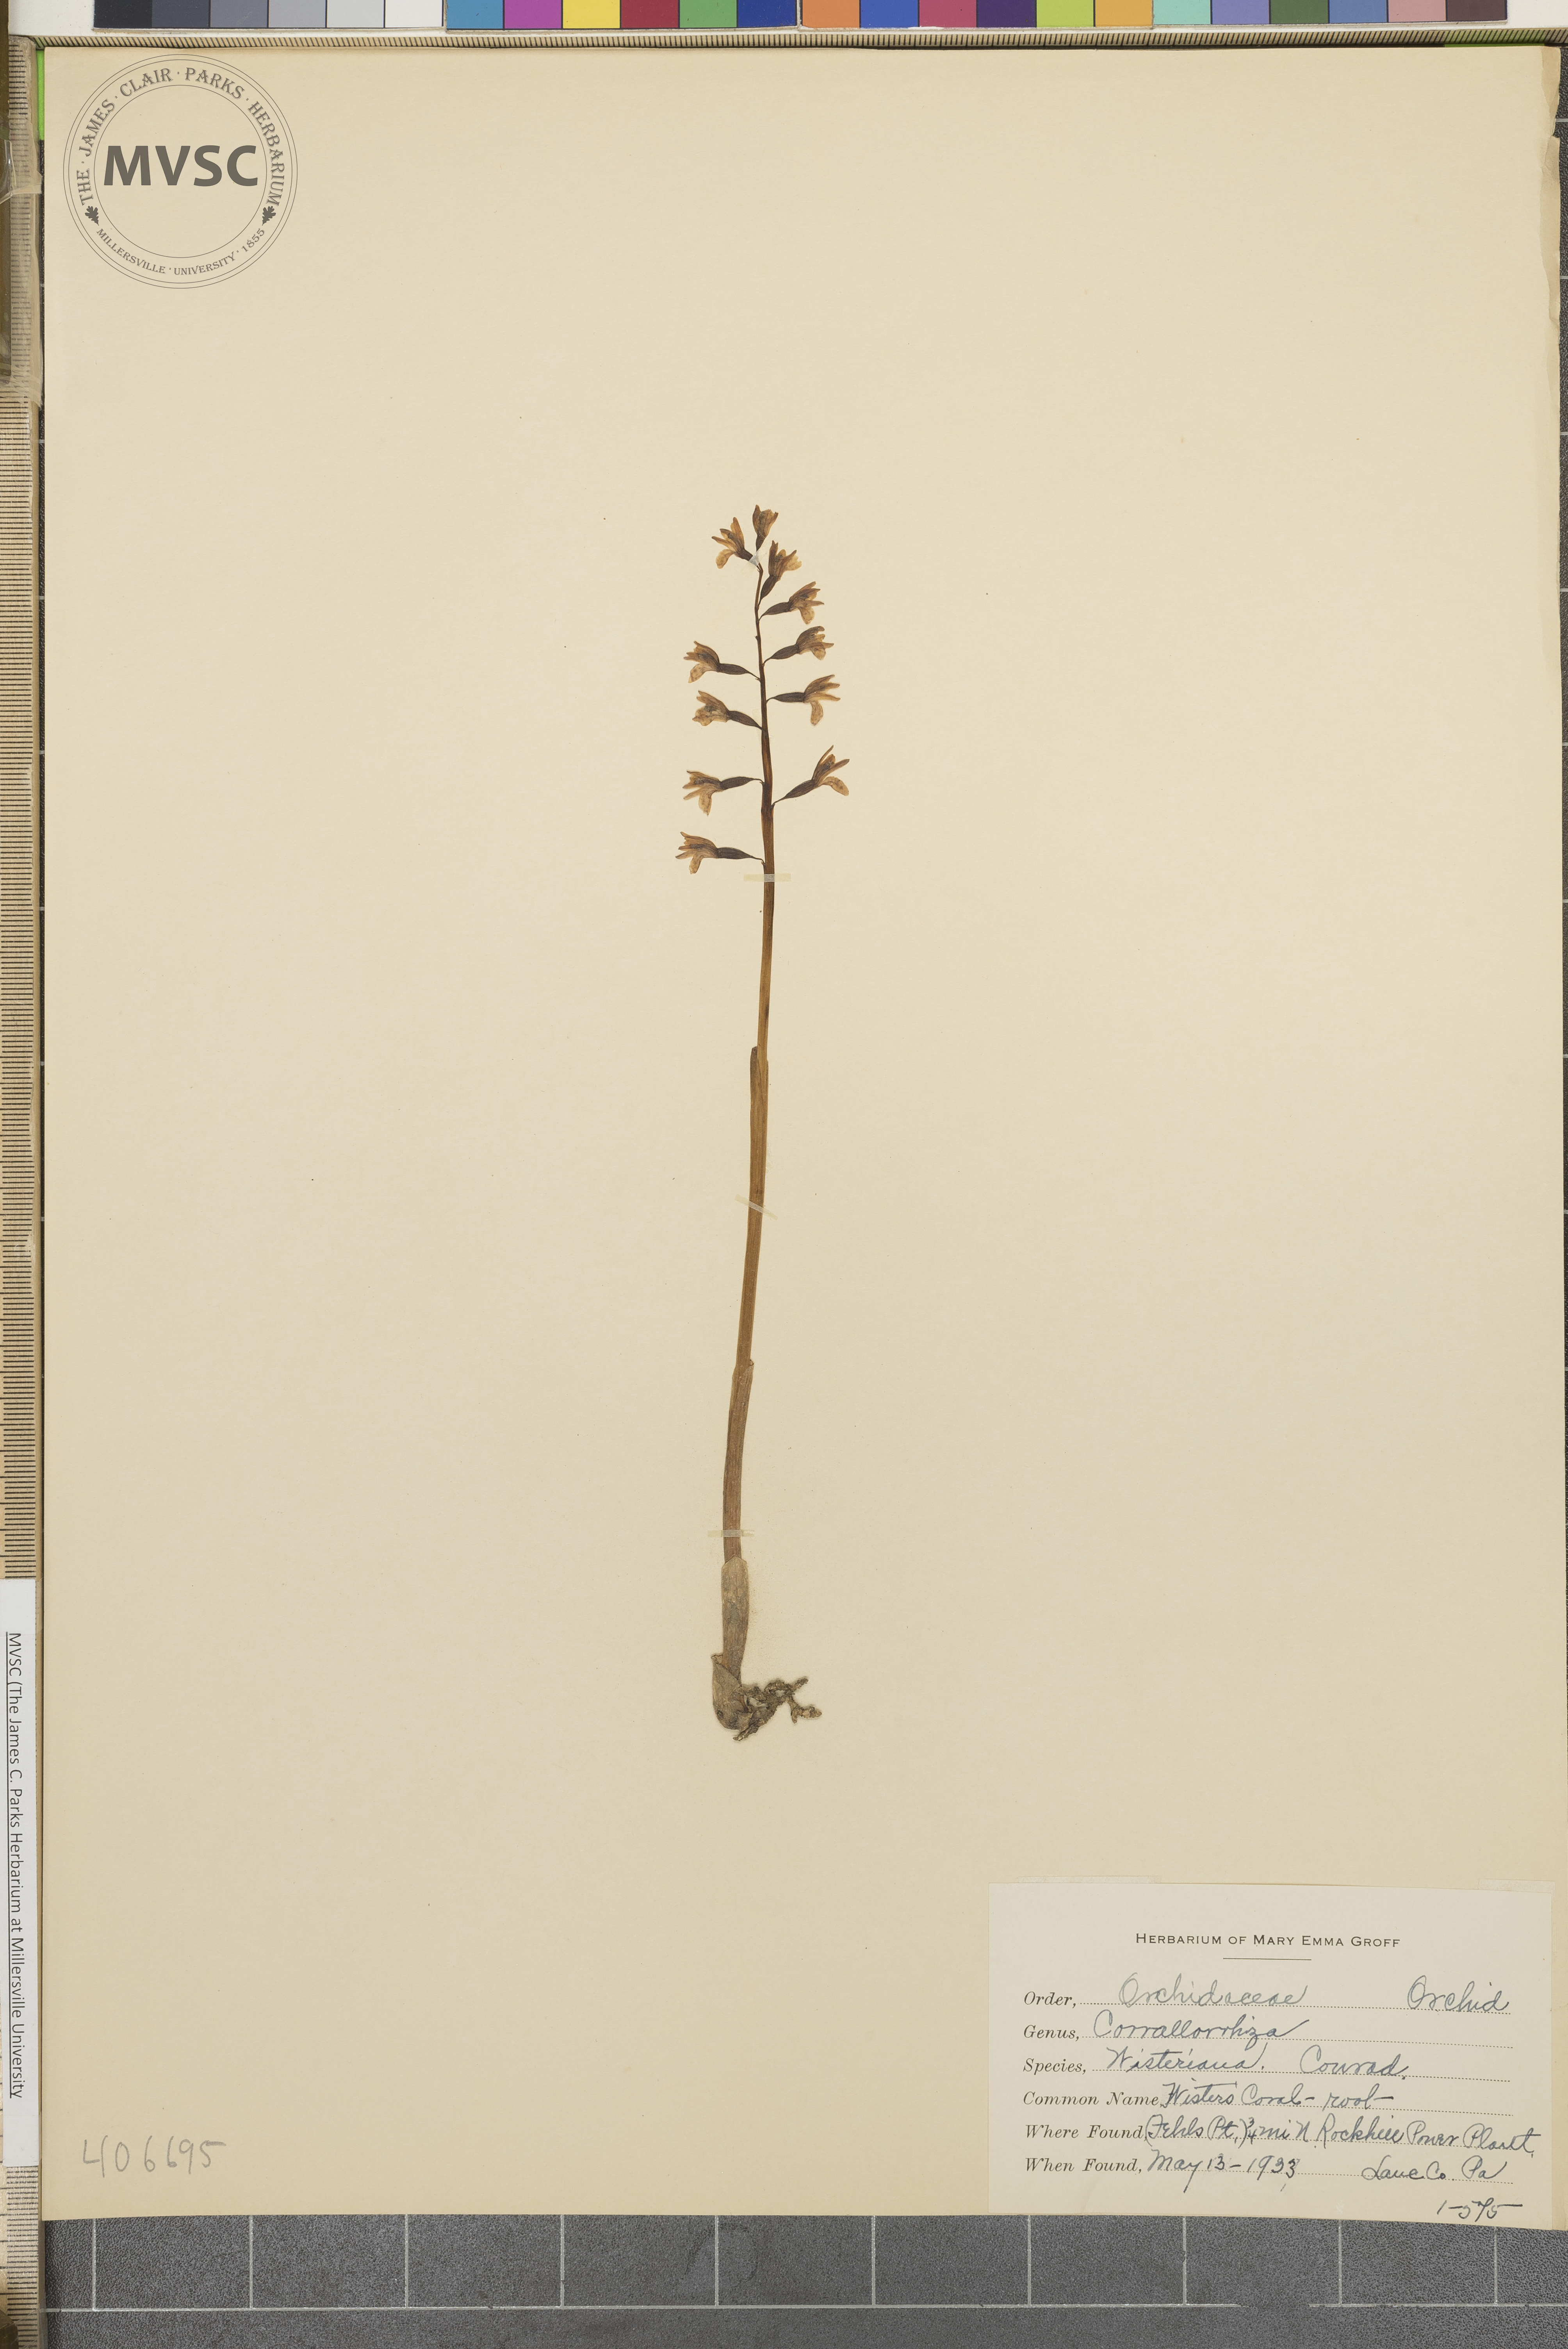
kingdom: Plantae
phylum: Tracheophyta
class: Liliopsida
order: Asparagales
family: Orchidaceae
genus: Corallorhiza
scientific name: Corallorhiza wisteriana
